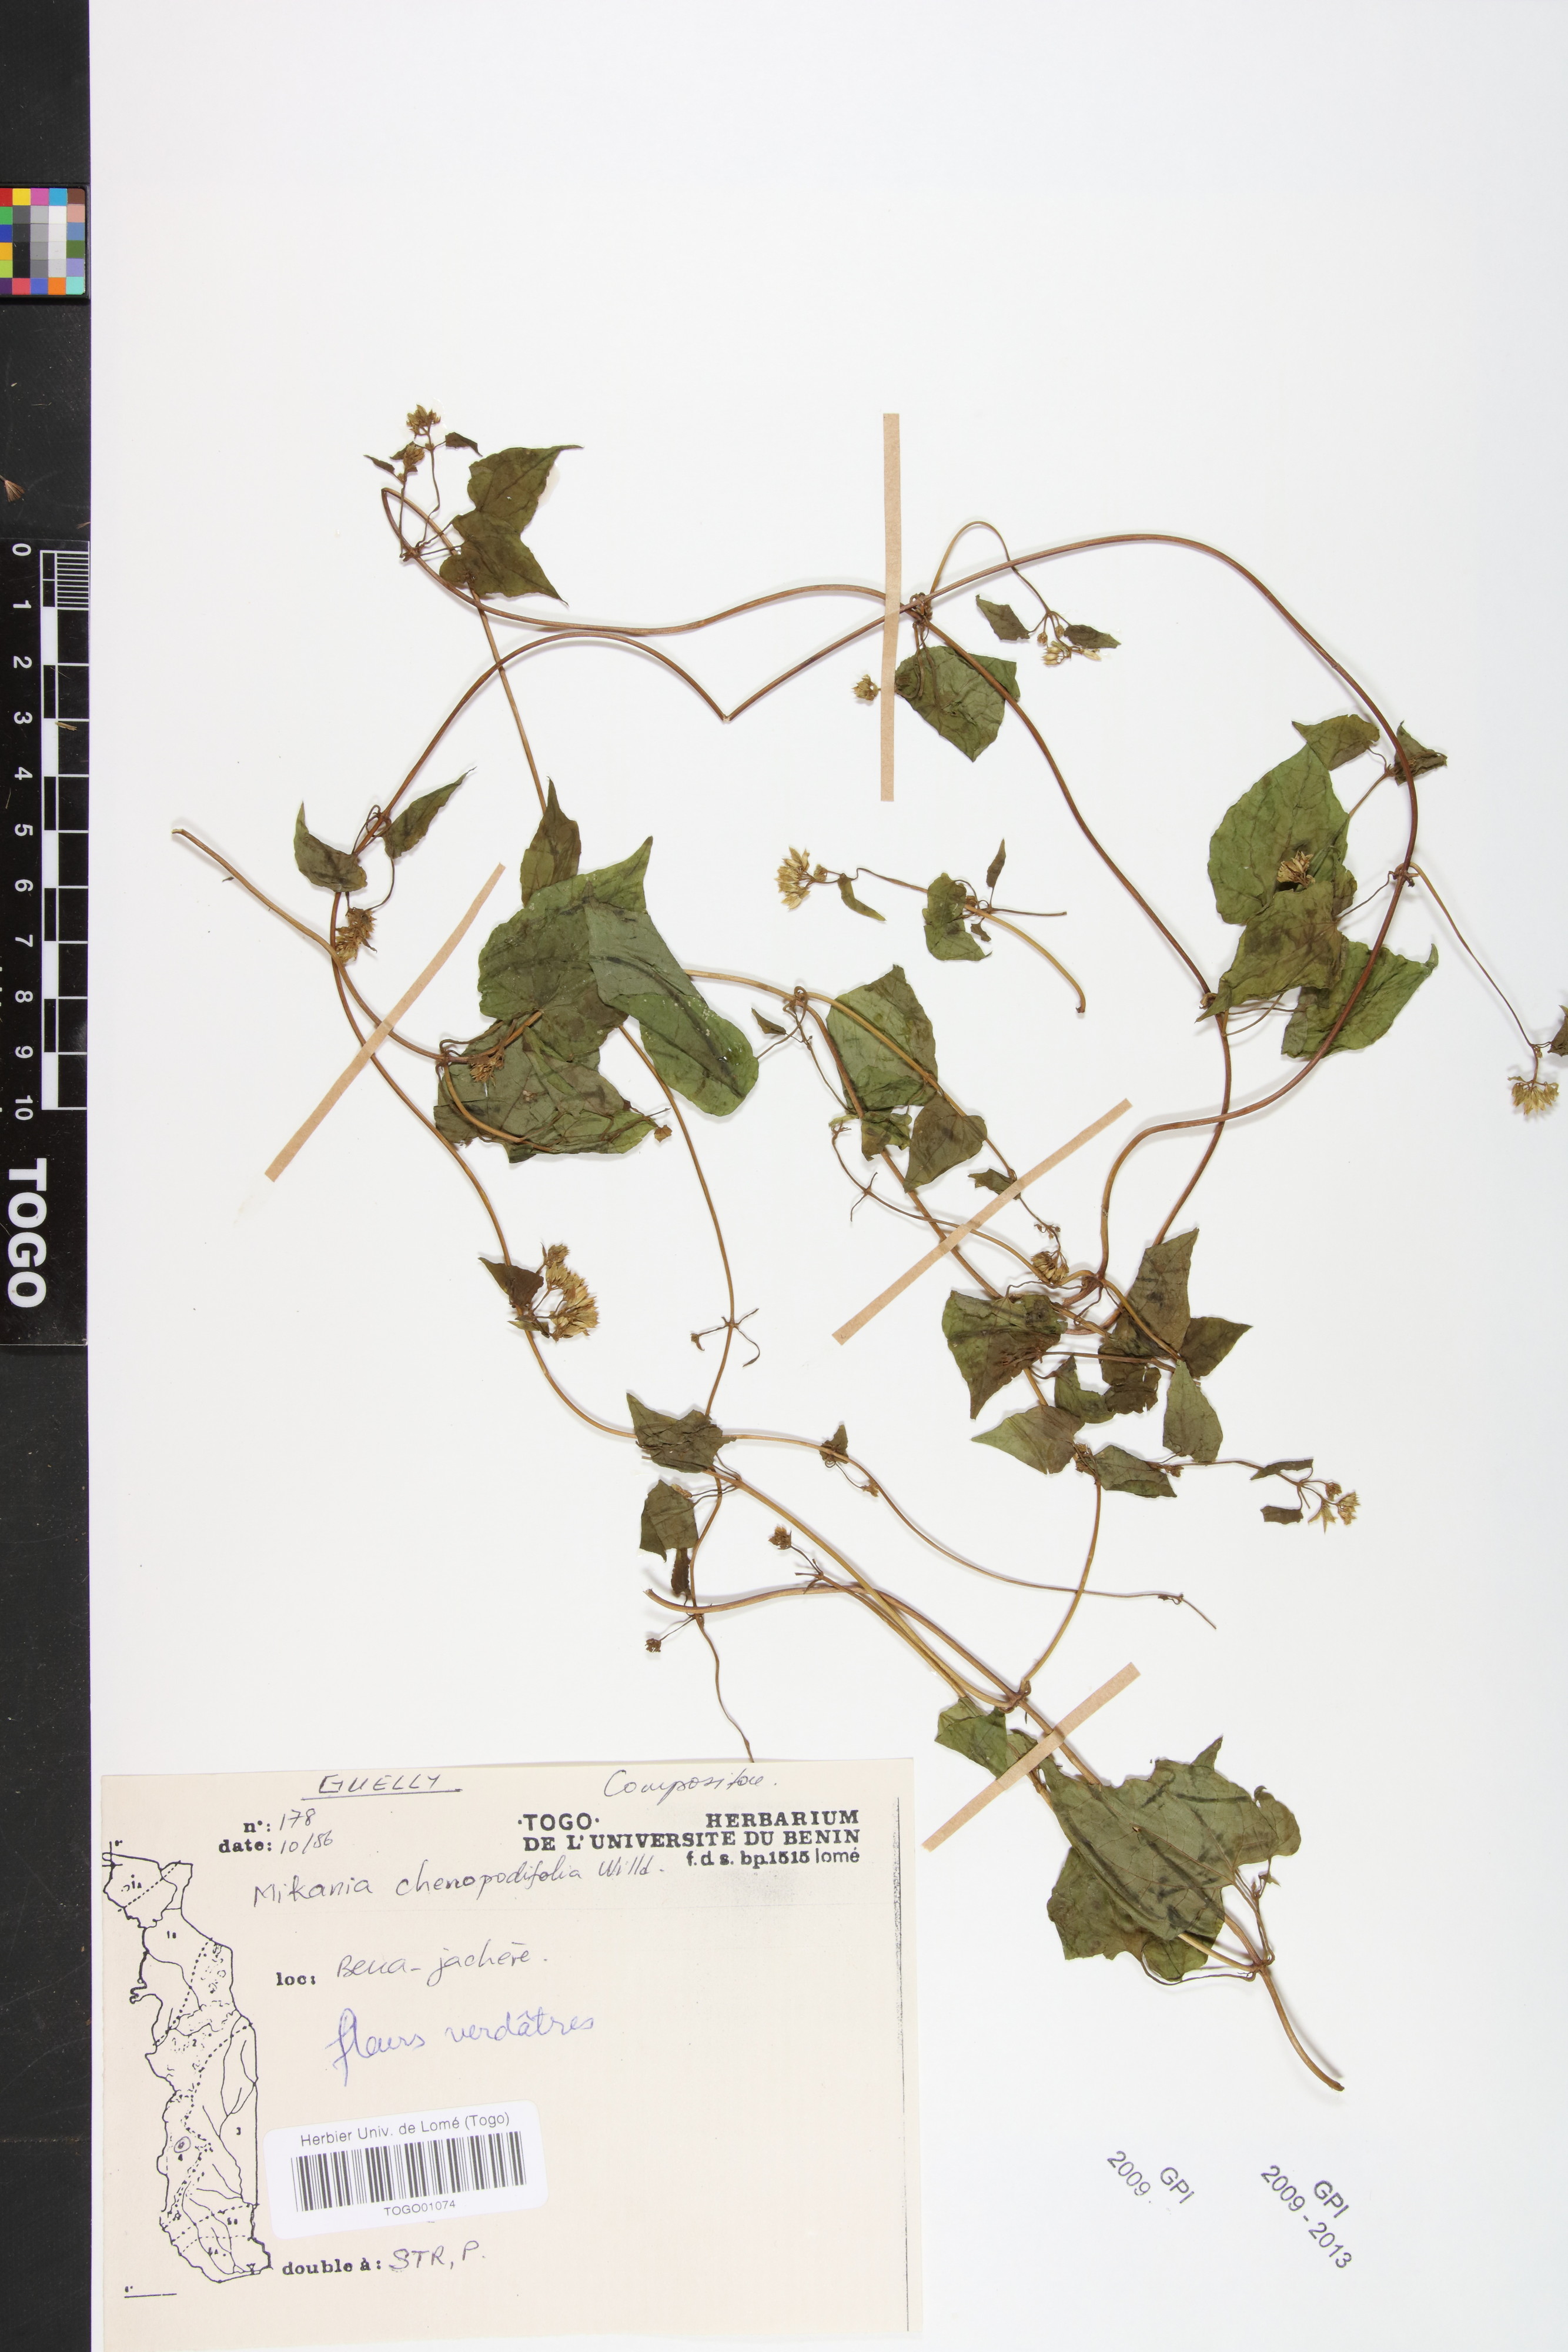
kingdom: Plantae
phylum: Tracheophyta
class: Magnoliopsida
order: Asterales
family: Asteraceae
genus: Mikania
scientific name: Mikania chenopodifolia
